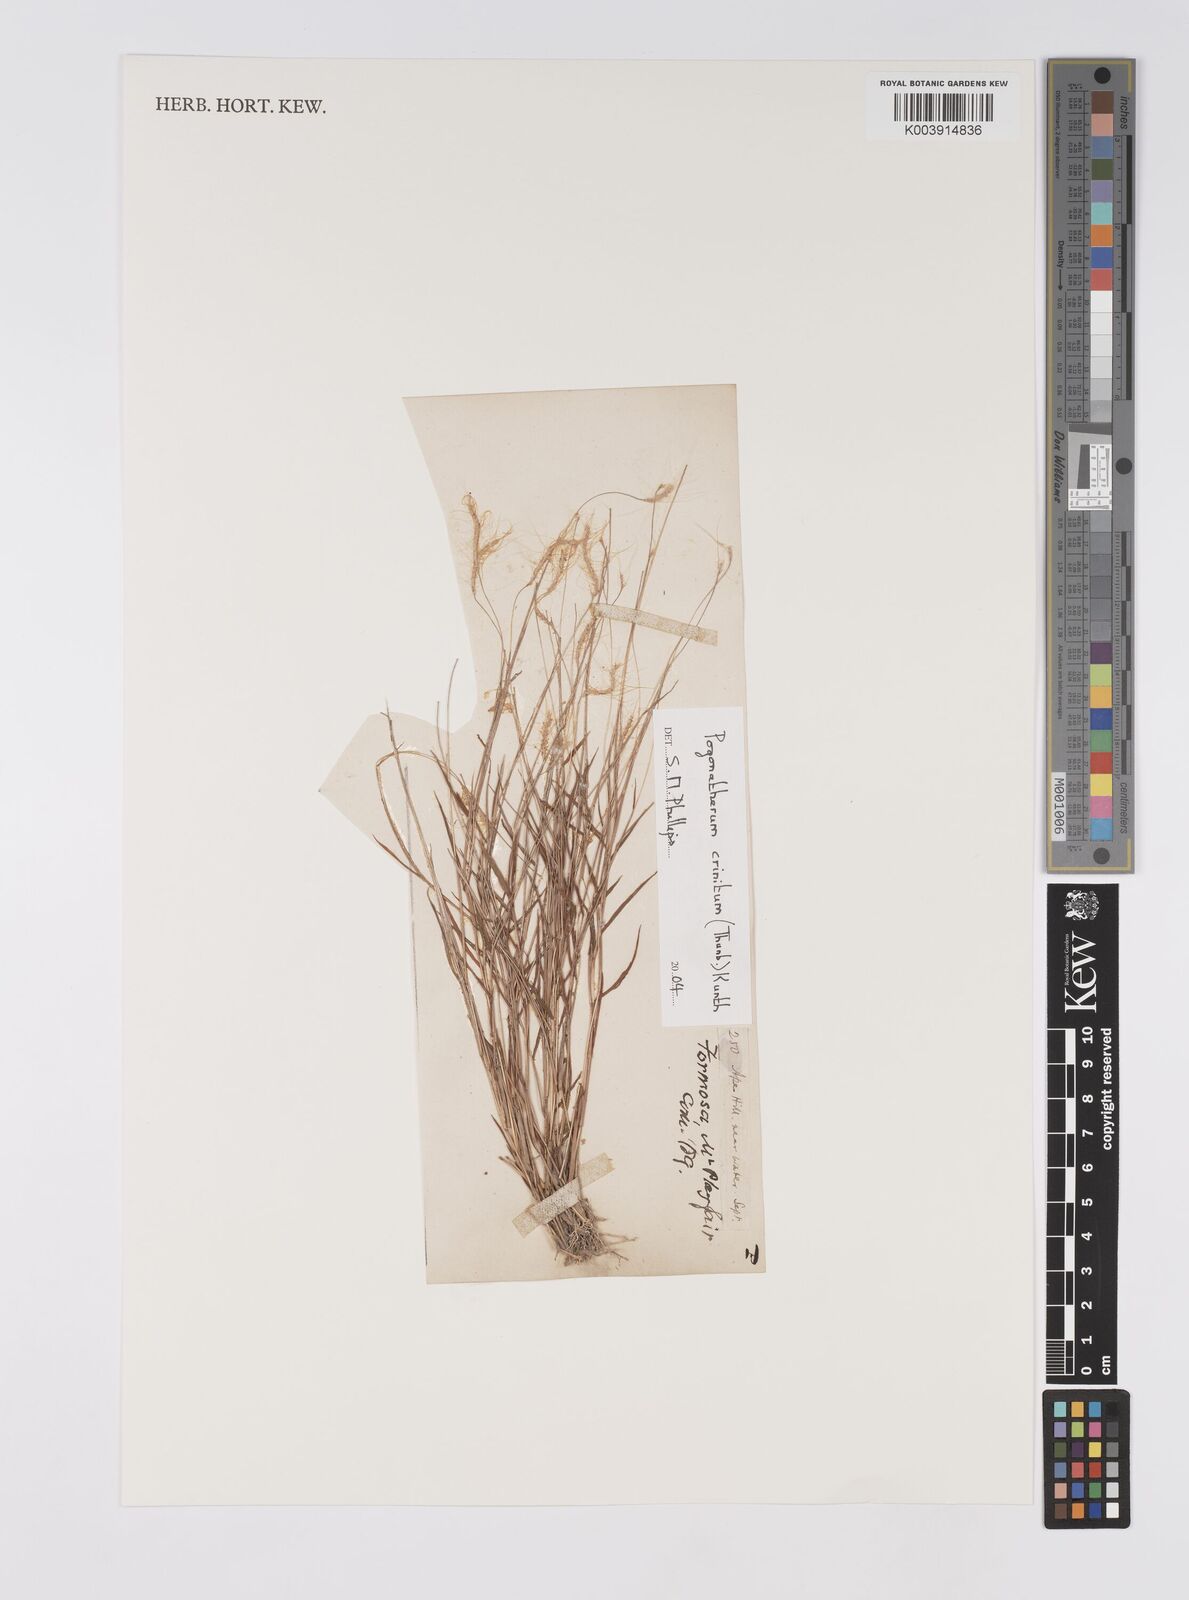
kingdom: Plantae
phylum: Tracheophyta
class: Liliopsida
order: Poales
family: Poaceae
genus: Pogonatherum
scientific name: Pogonatherum crinitum
